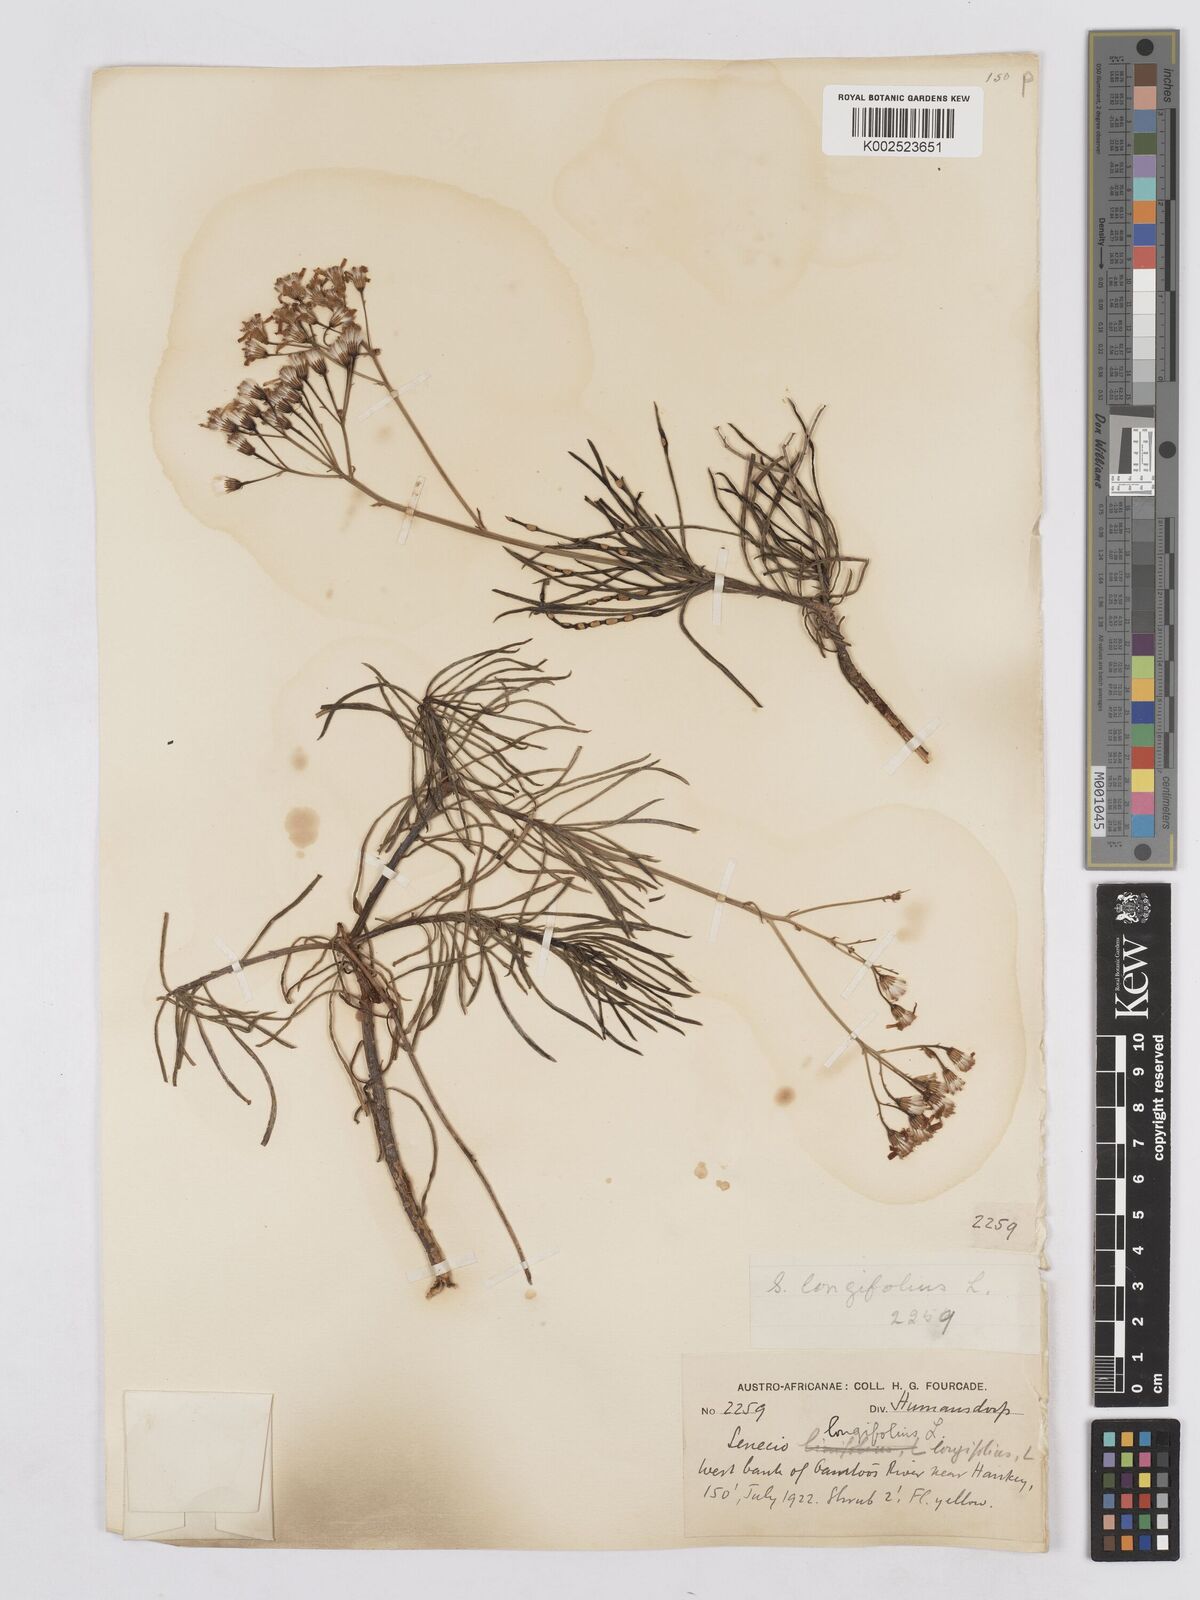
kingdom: Plantae
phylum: Tracheophyta
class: Magnoliopsida
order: Asterales
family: Asteraceae
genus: Senecio
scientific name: Senecio linifolius
